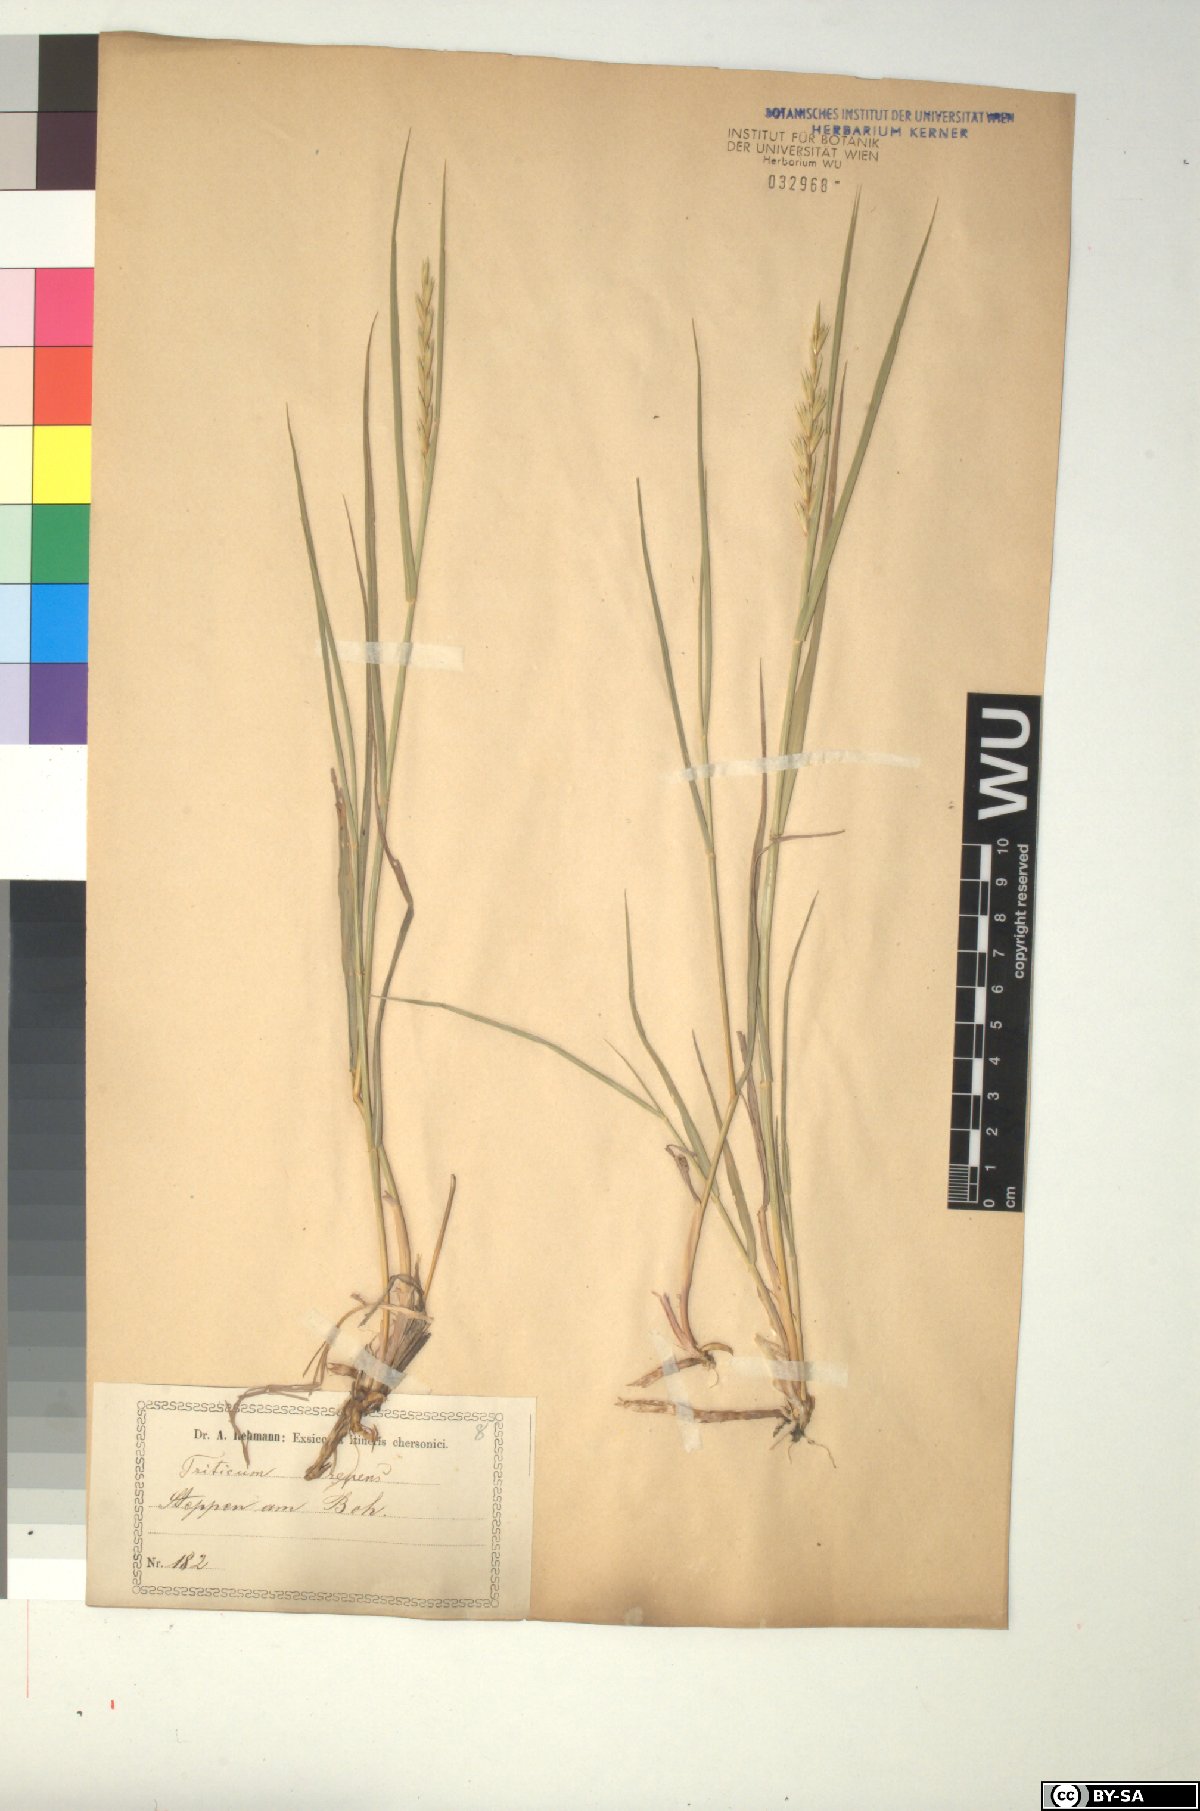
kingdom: Plantae
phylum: Tracheophyta
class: Liliopsida
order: Poales
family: Poaceae
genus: Elymus
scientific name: Elymus repens
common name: Quackgrass
